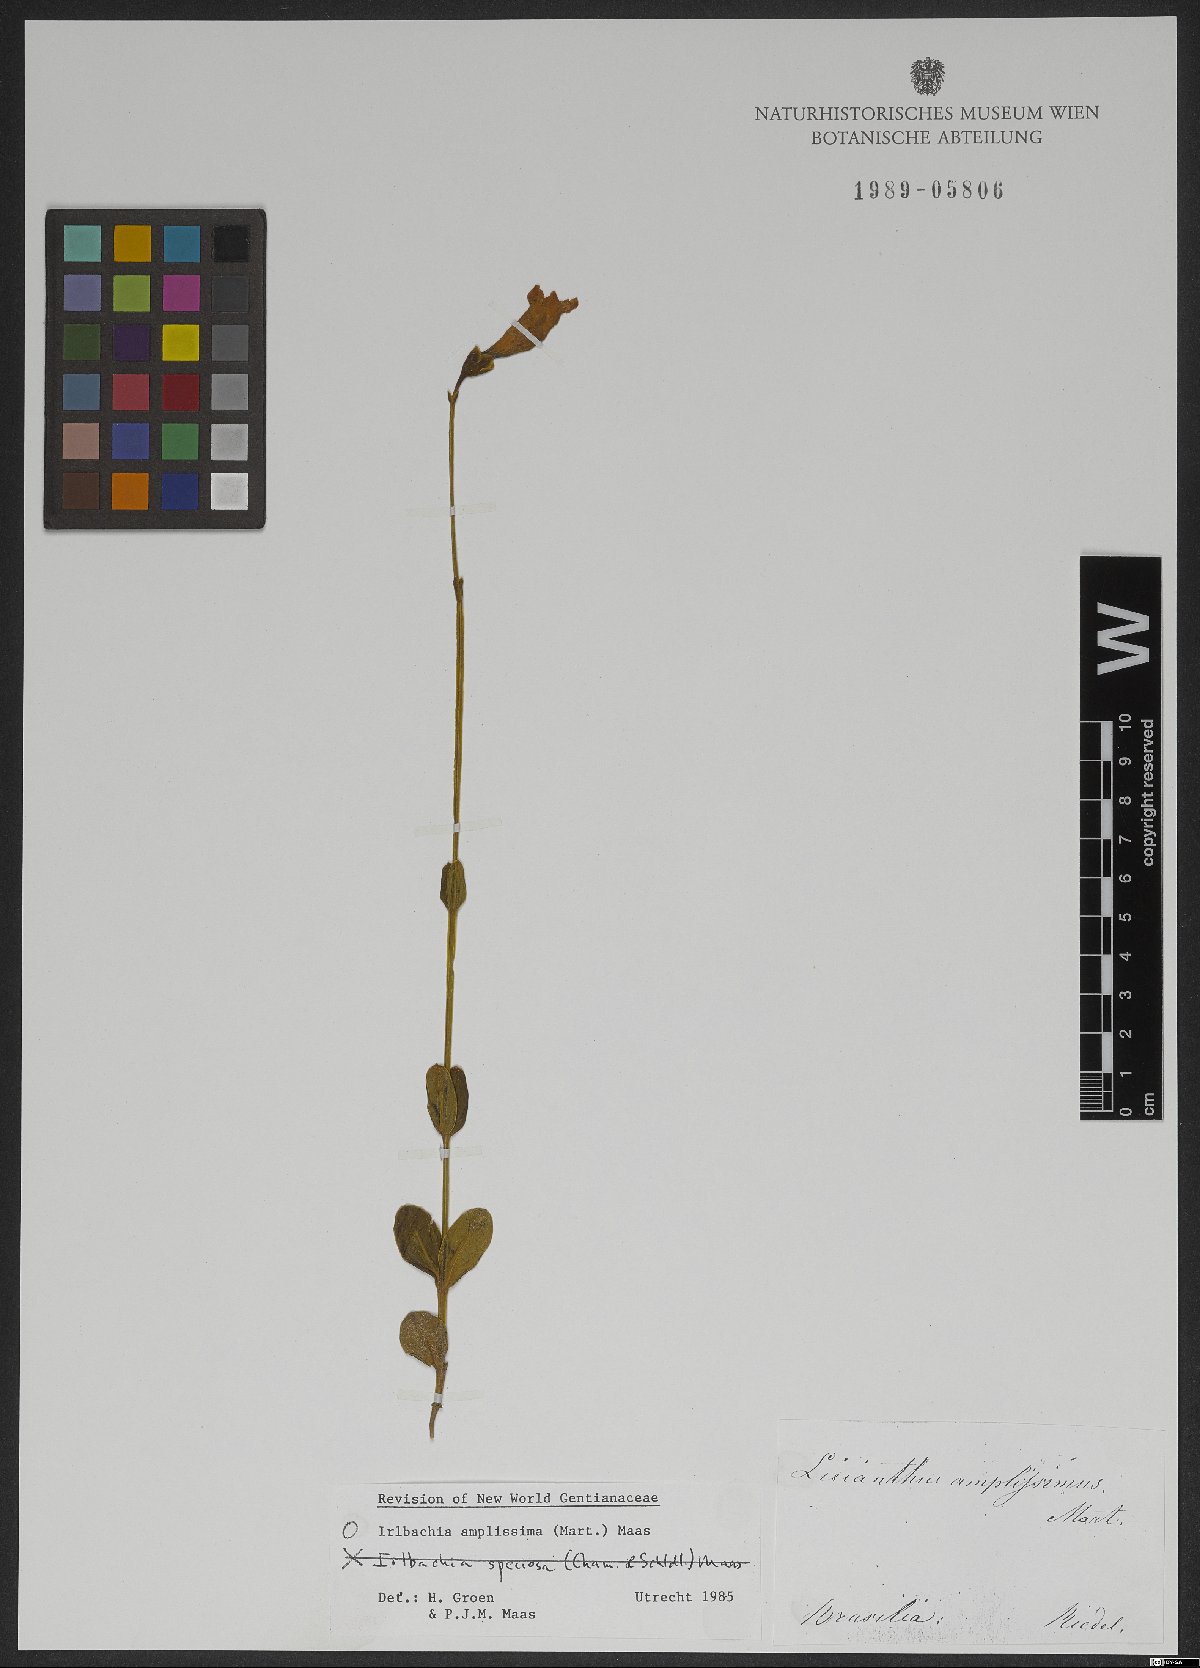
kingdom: Plantae
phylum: Tracheophyta
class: Magnoliopsida
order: Gentianales
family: Gentianaceae
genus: Calolisianthus
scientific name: Calolisianthus amplissimus
